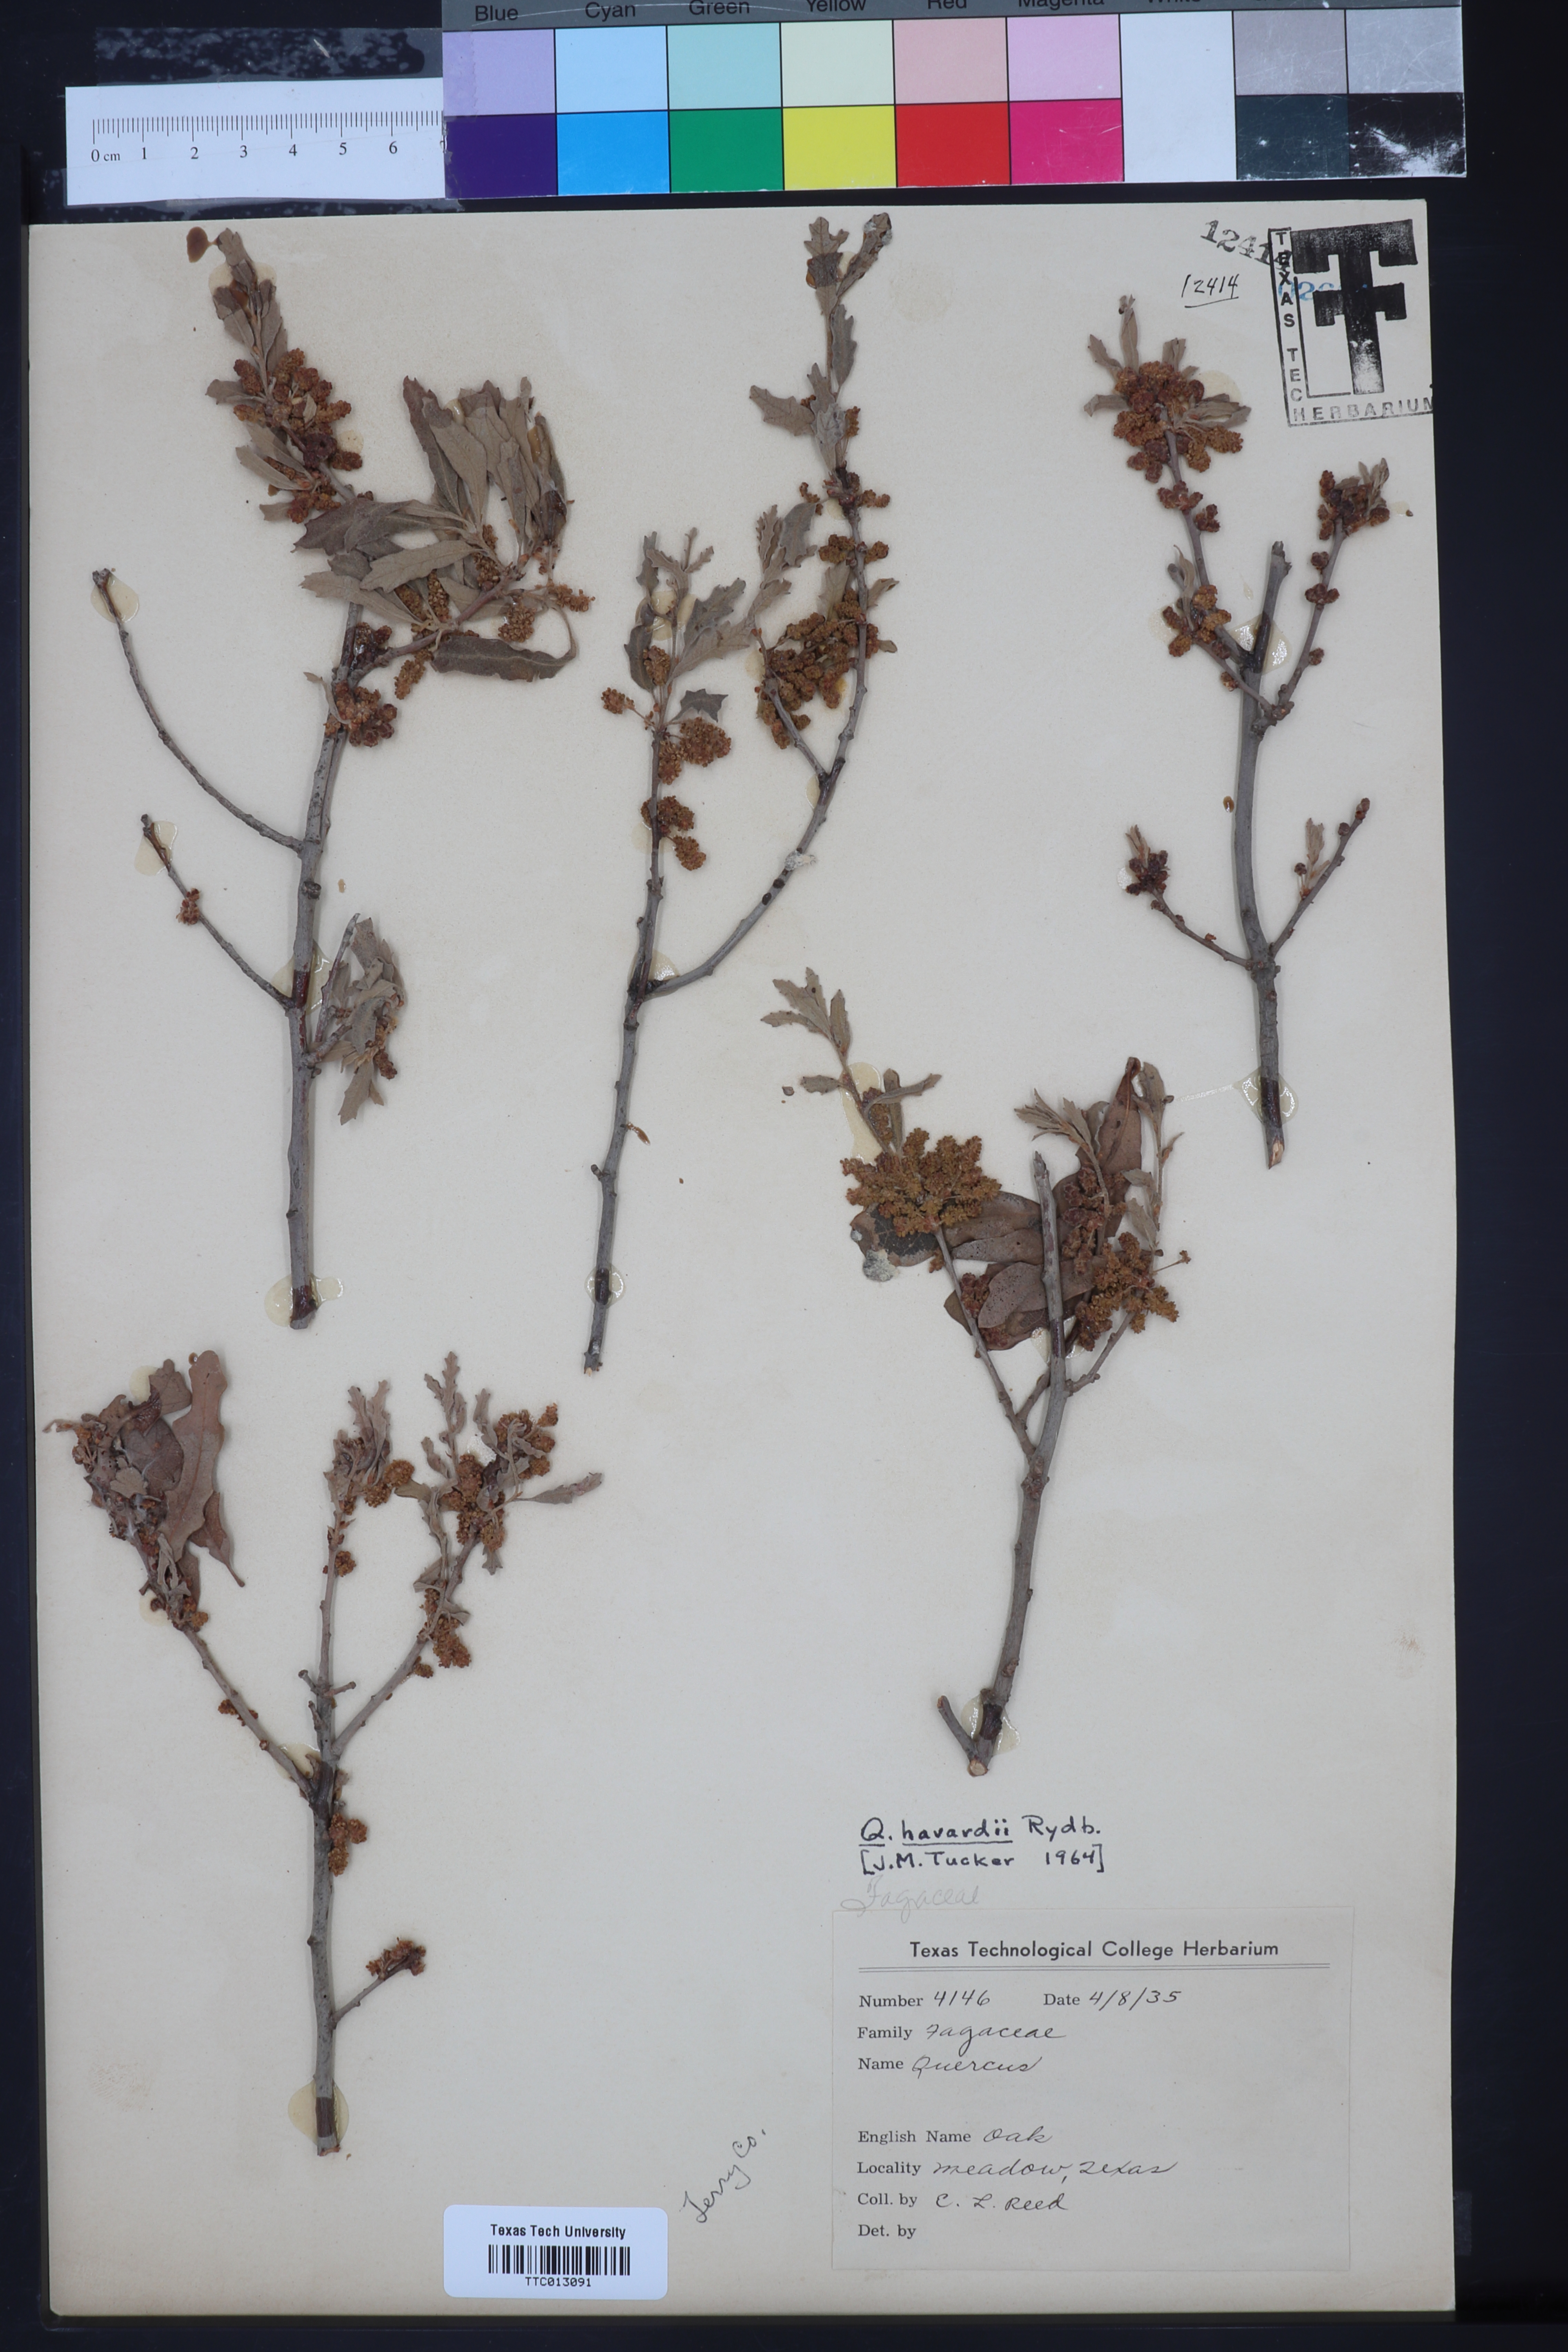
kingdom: Plantae
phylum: Tracheophyta
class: Magnoliopsida
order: Fagales
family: Fagaceae
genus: Quercus
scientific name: Quercus havardii
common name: Shinnery oak
